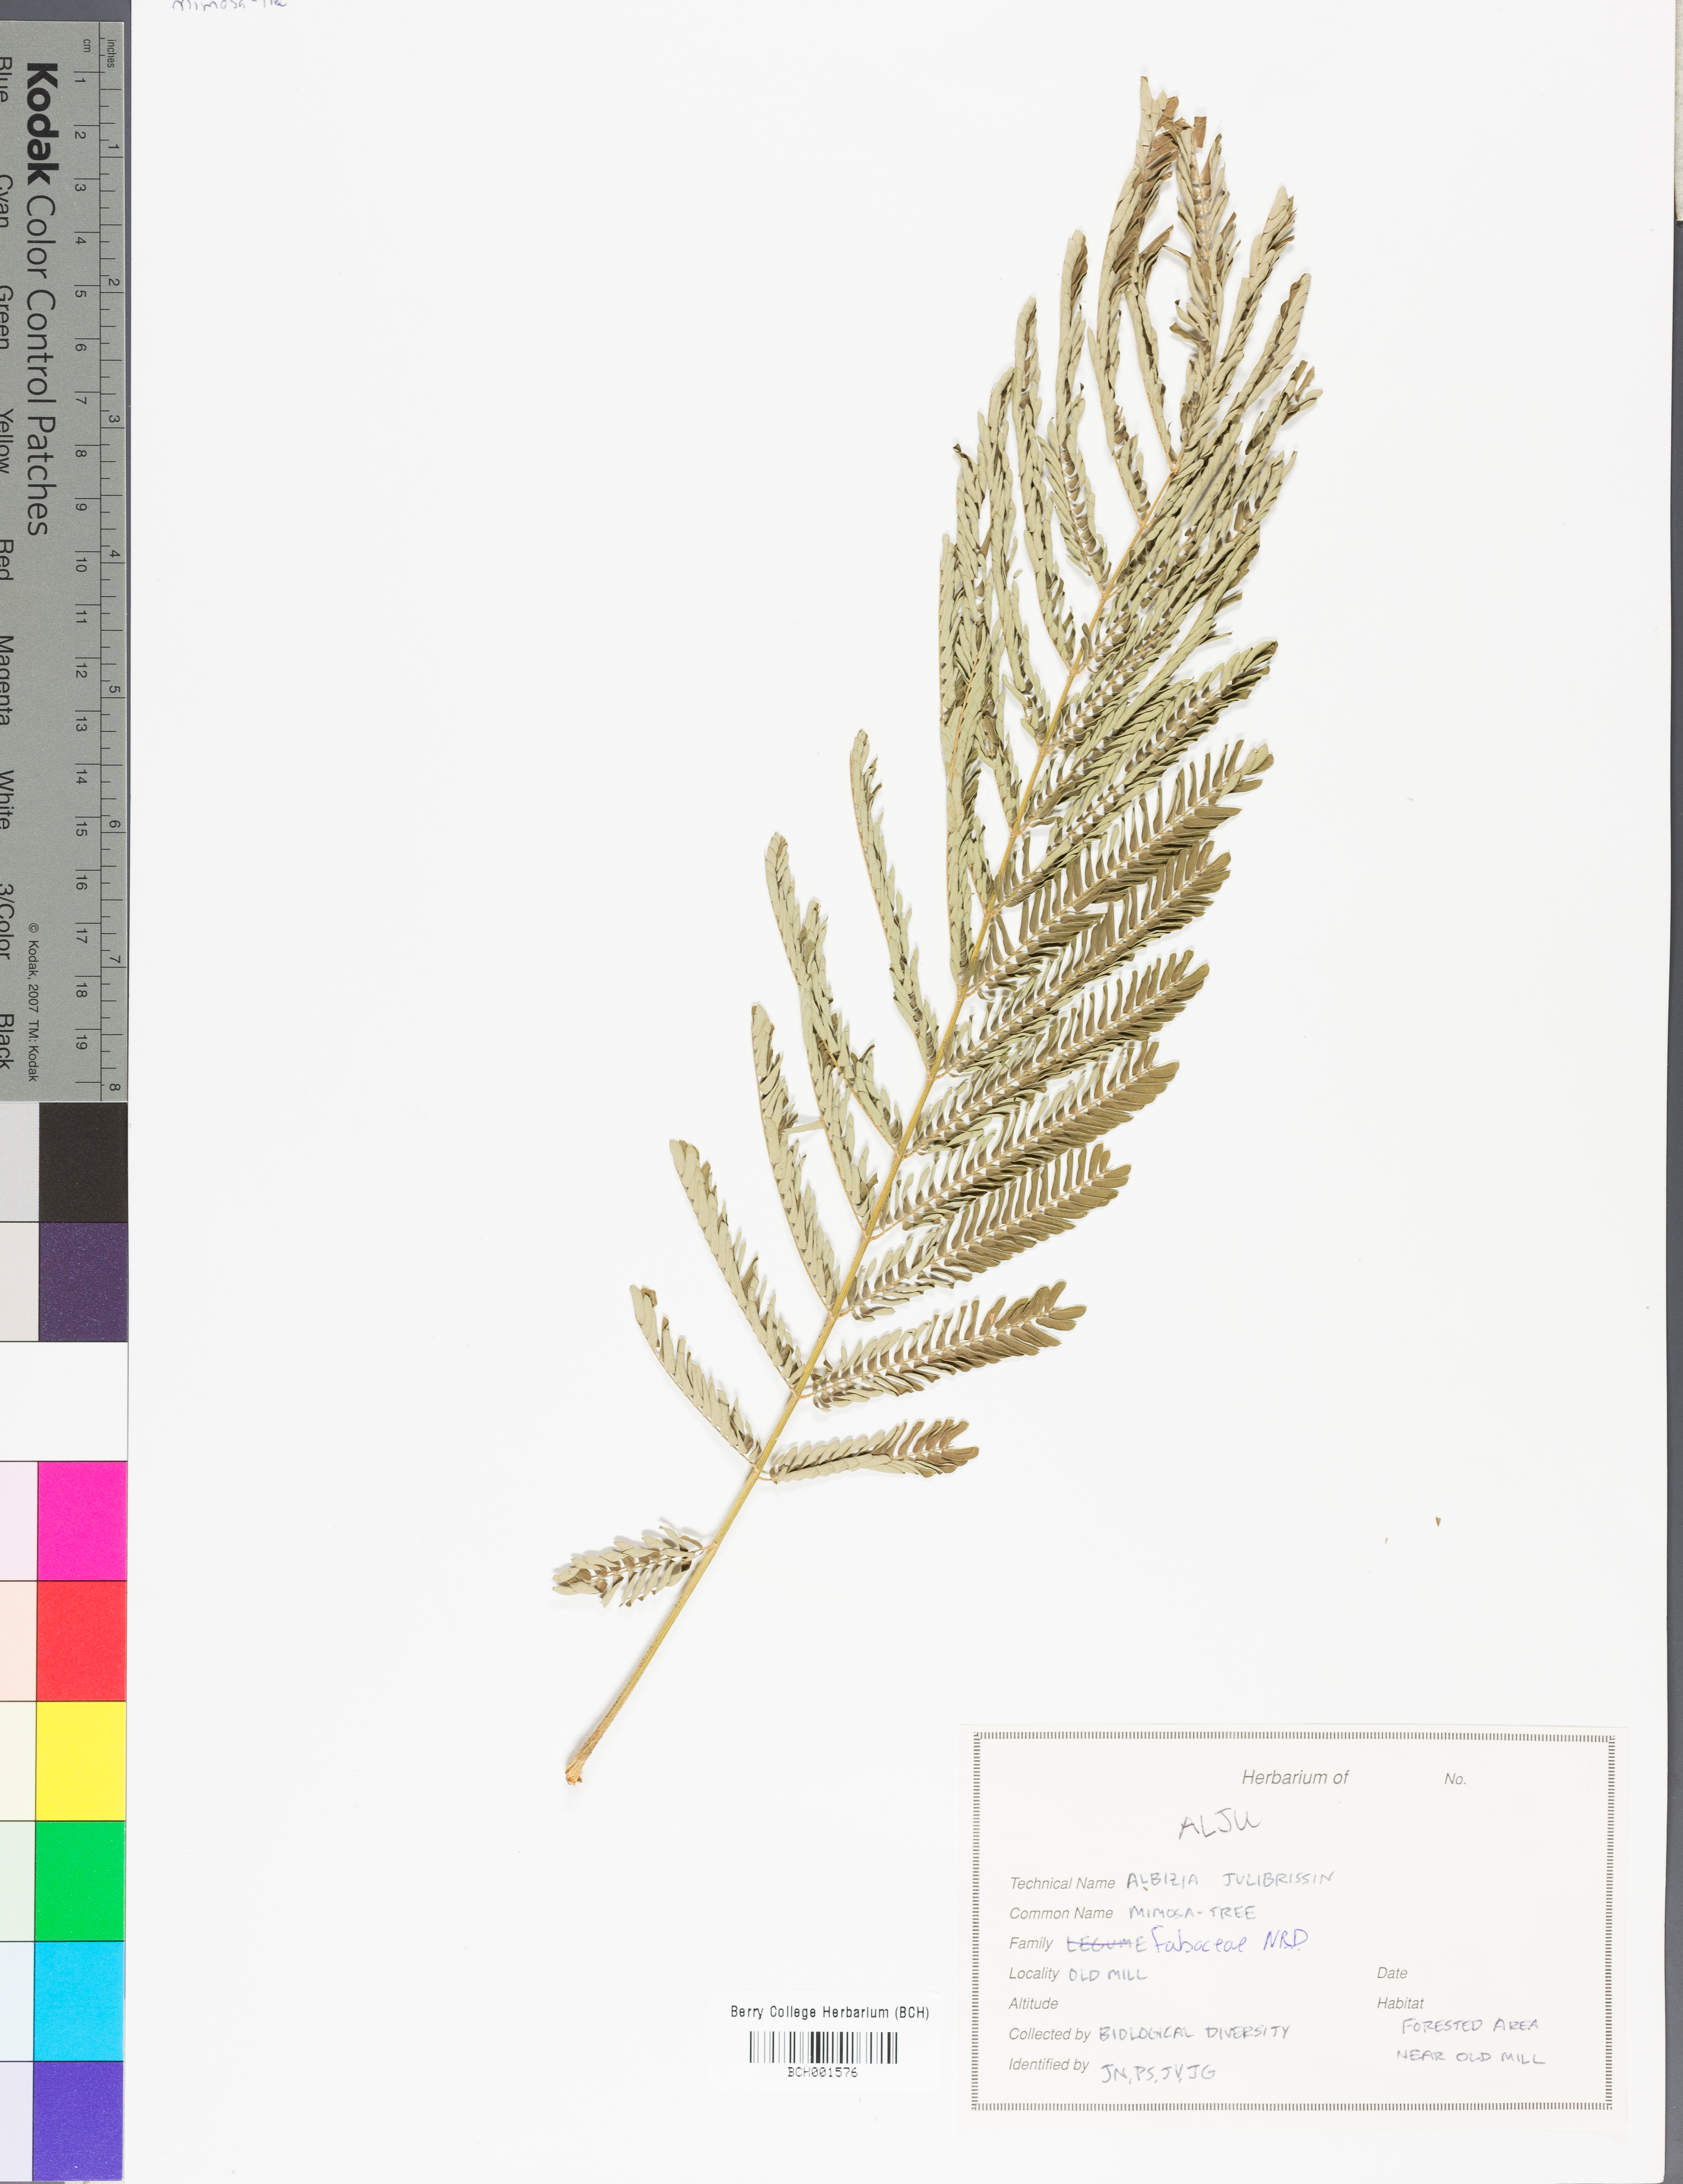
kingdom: Plantae
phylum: Tracheophyta
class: Magnoliopsida
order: Fabales
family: Fabaceae
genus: Albizia
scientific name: Albizia julibrissin
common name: Silktree
